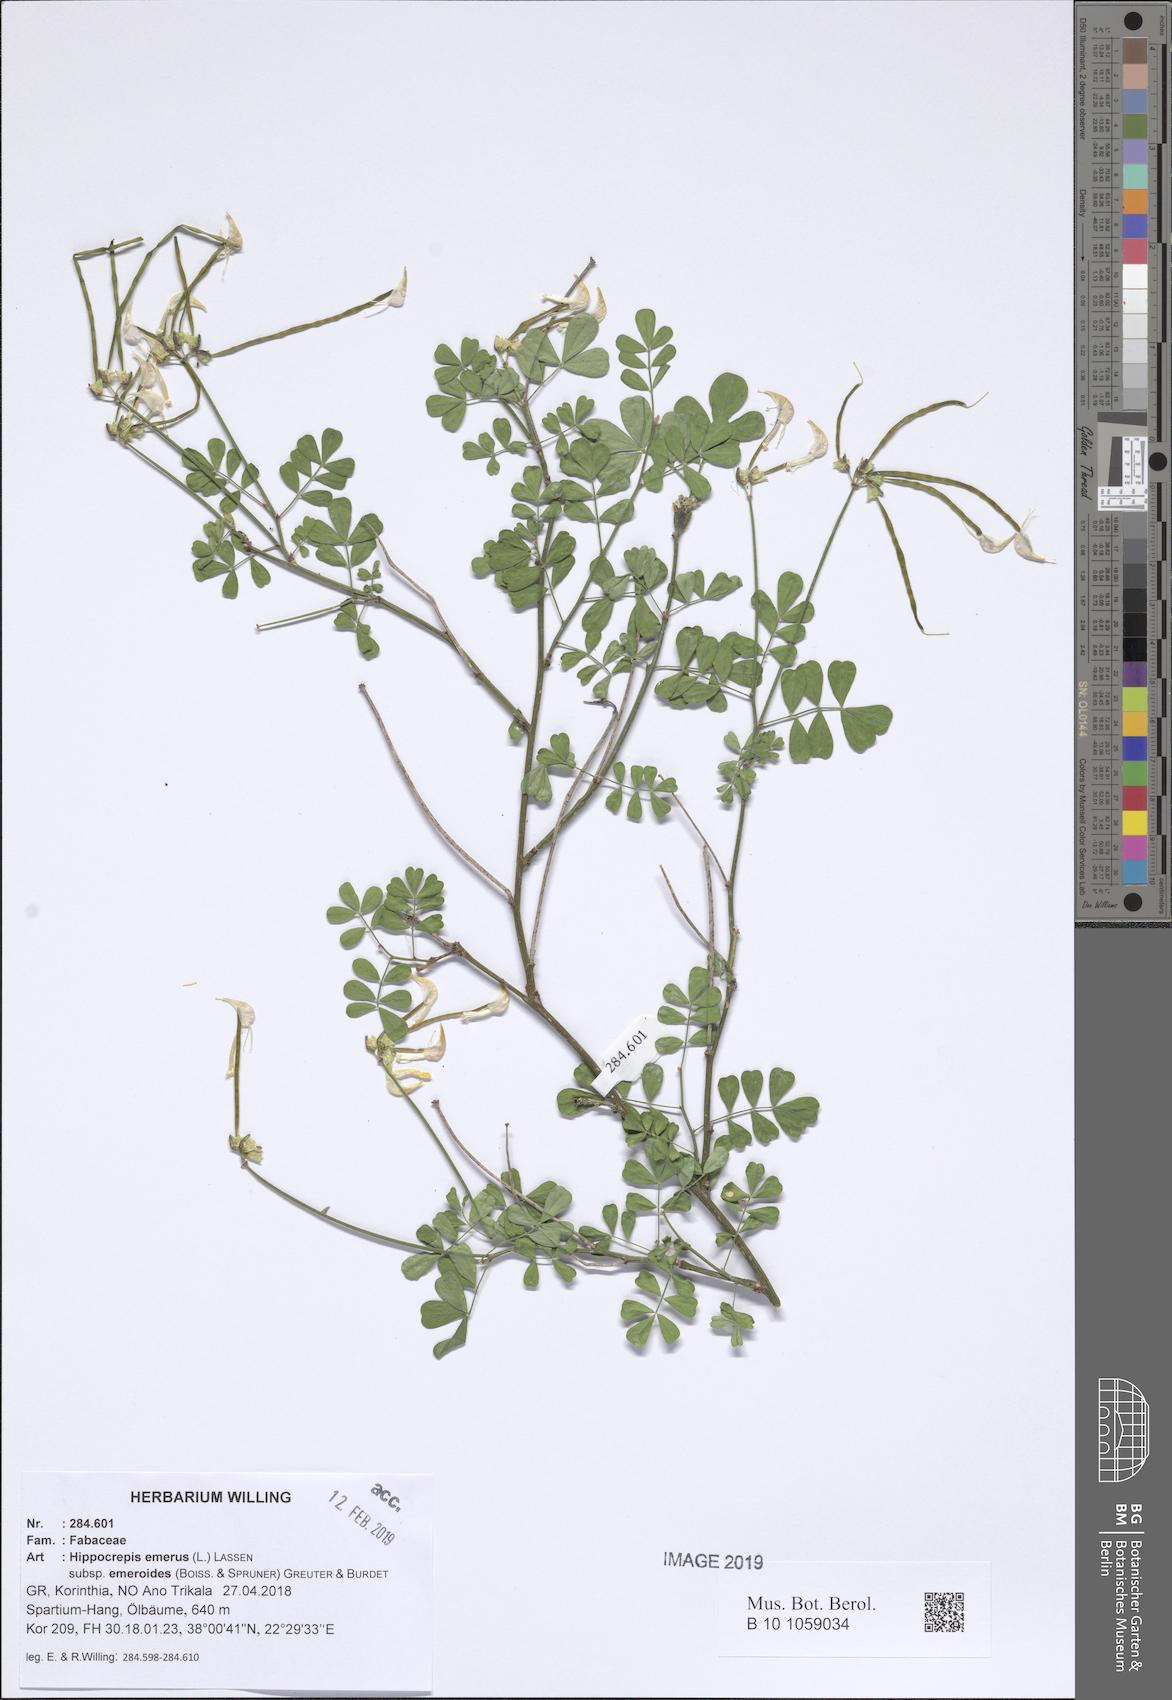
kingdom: Plantae
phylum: Tracheophyta
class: Magnoliopsida
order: Fabales
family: Fabaceae
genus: Hippocrepis
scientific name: Hippocrepis emerus
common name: Scorpion senna
